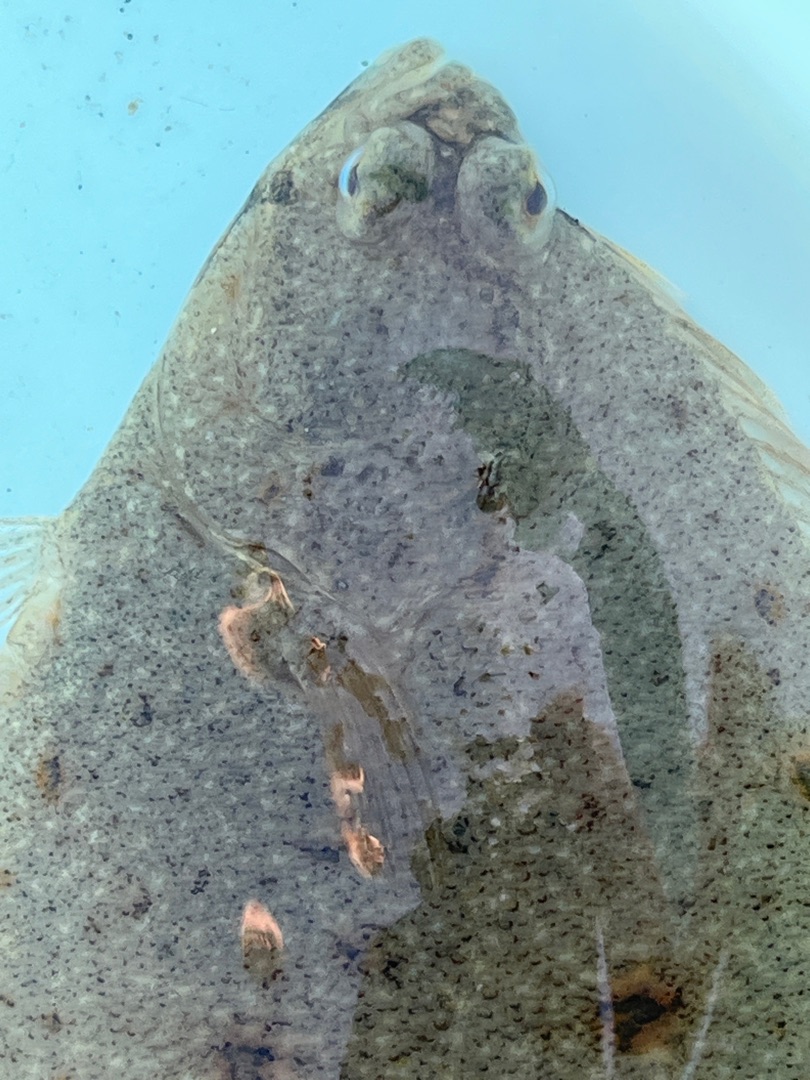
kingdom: Animalia
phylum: Chordata
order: Pleuronectiformes
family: Pleuronectidae
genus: Platichthys
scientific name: Platichthys flesus
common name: Skrubbe
